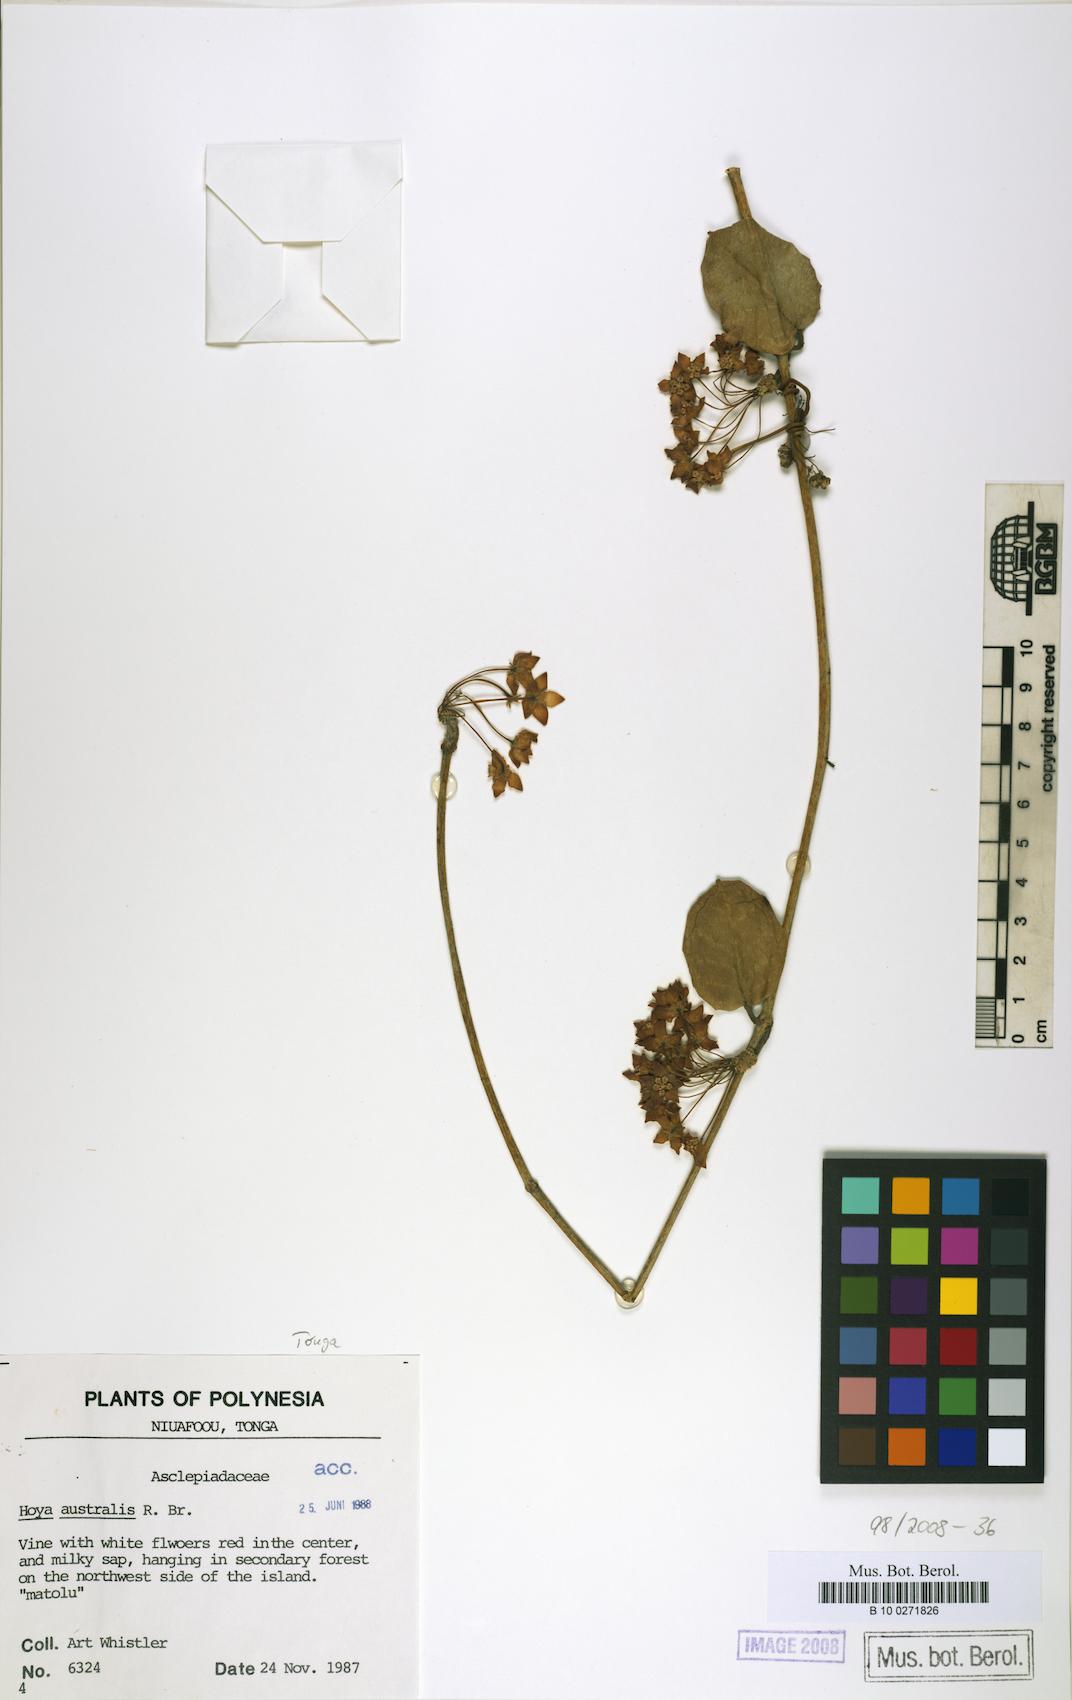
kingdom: Plantae
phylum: Tracheophyta
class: Magnoliopsida
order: Gentianales
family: Apocynaceae
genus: Hoya
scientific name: Hoya australis
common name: Wax flower
